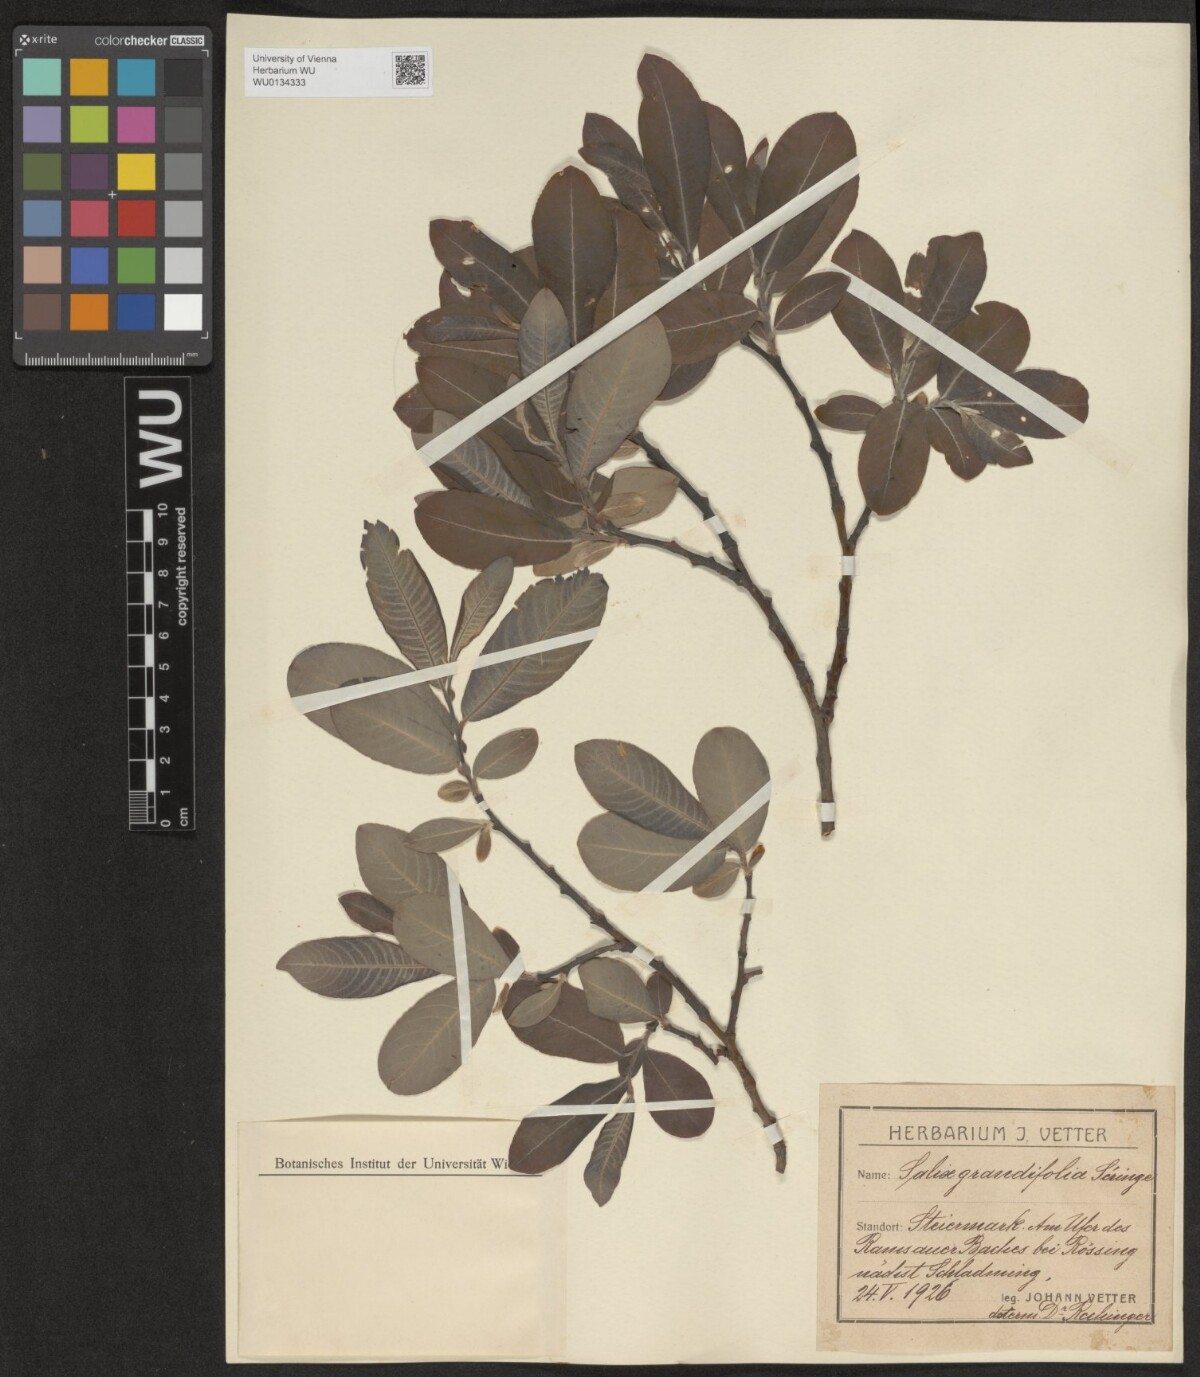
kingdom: Plantae
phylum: Tracheophyta
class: Magnoliopsida
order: Malpighiales
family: Salicaceae
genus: Salix
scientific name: Salix appendiculata
